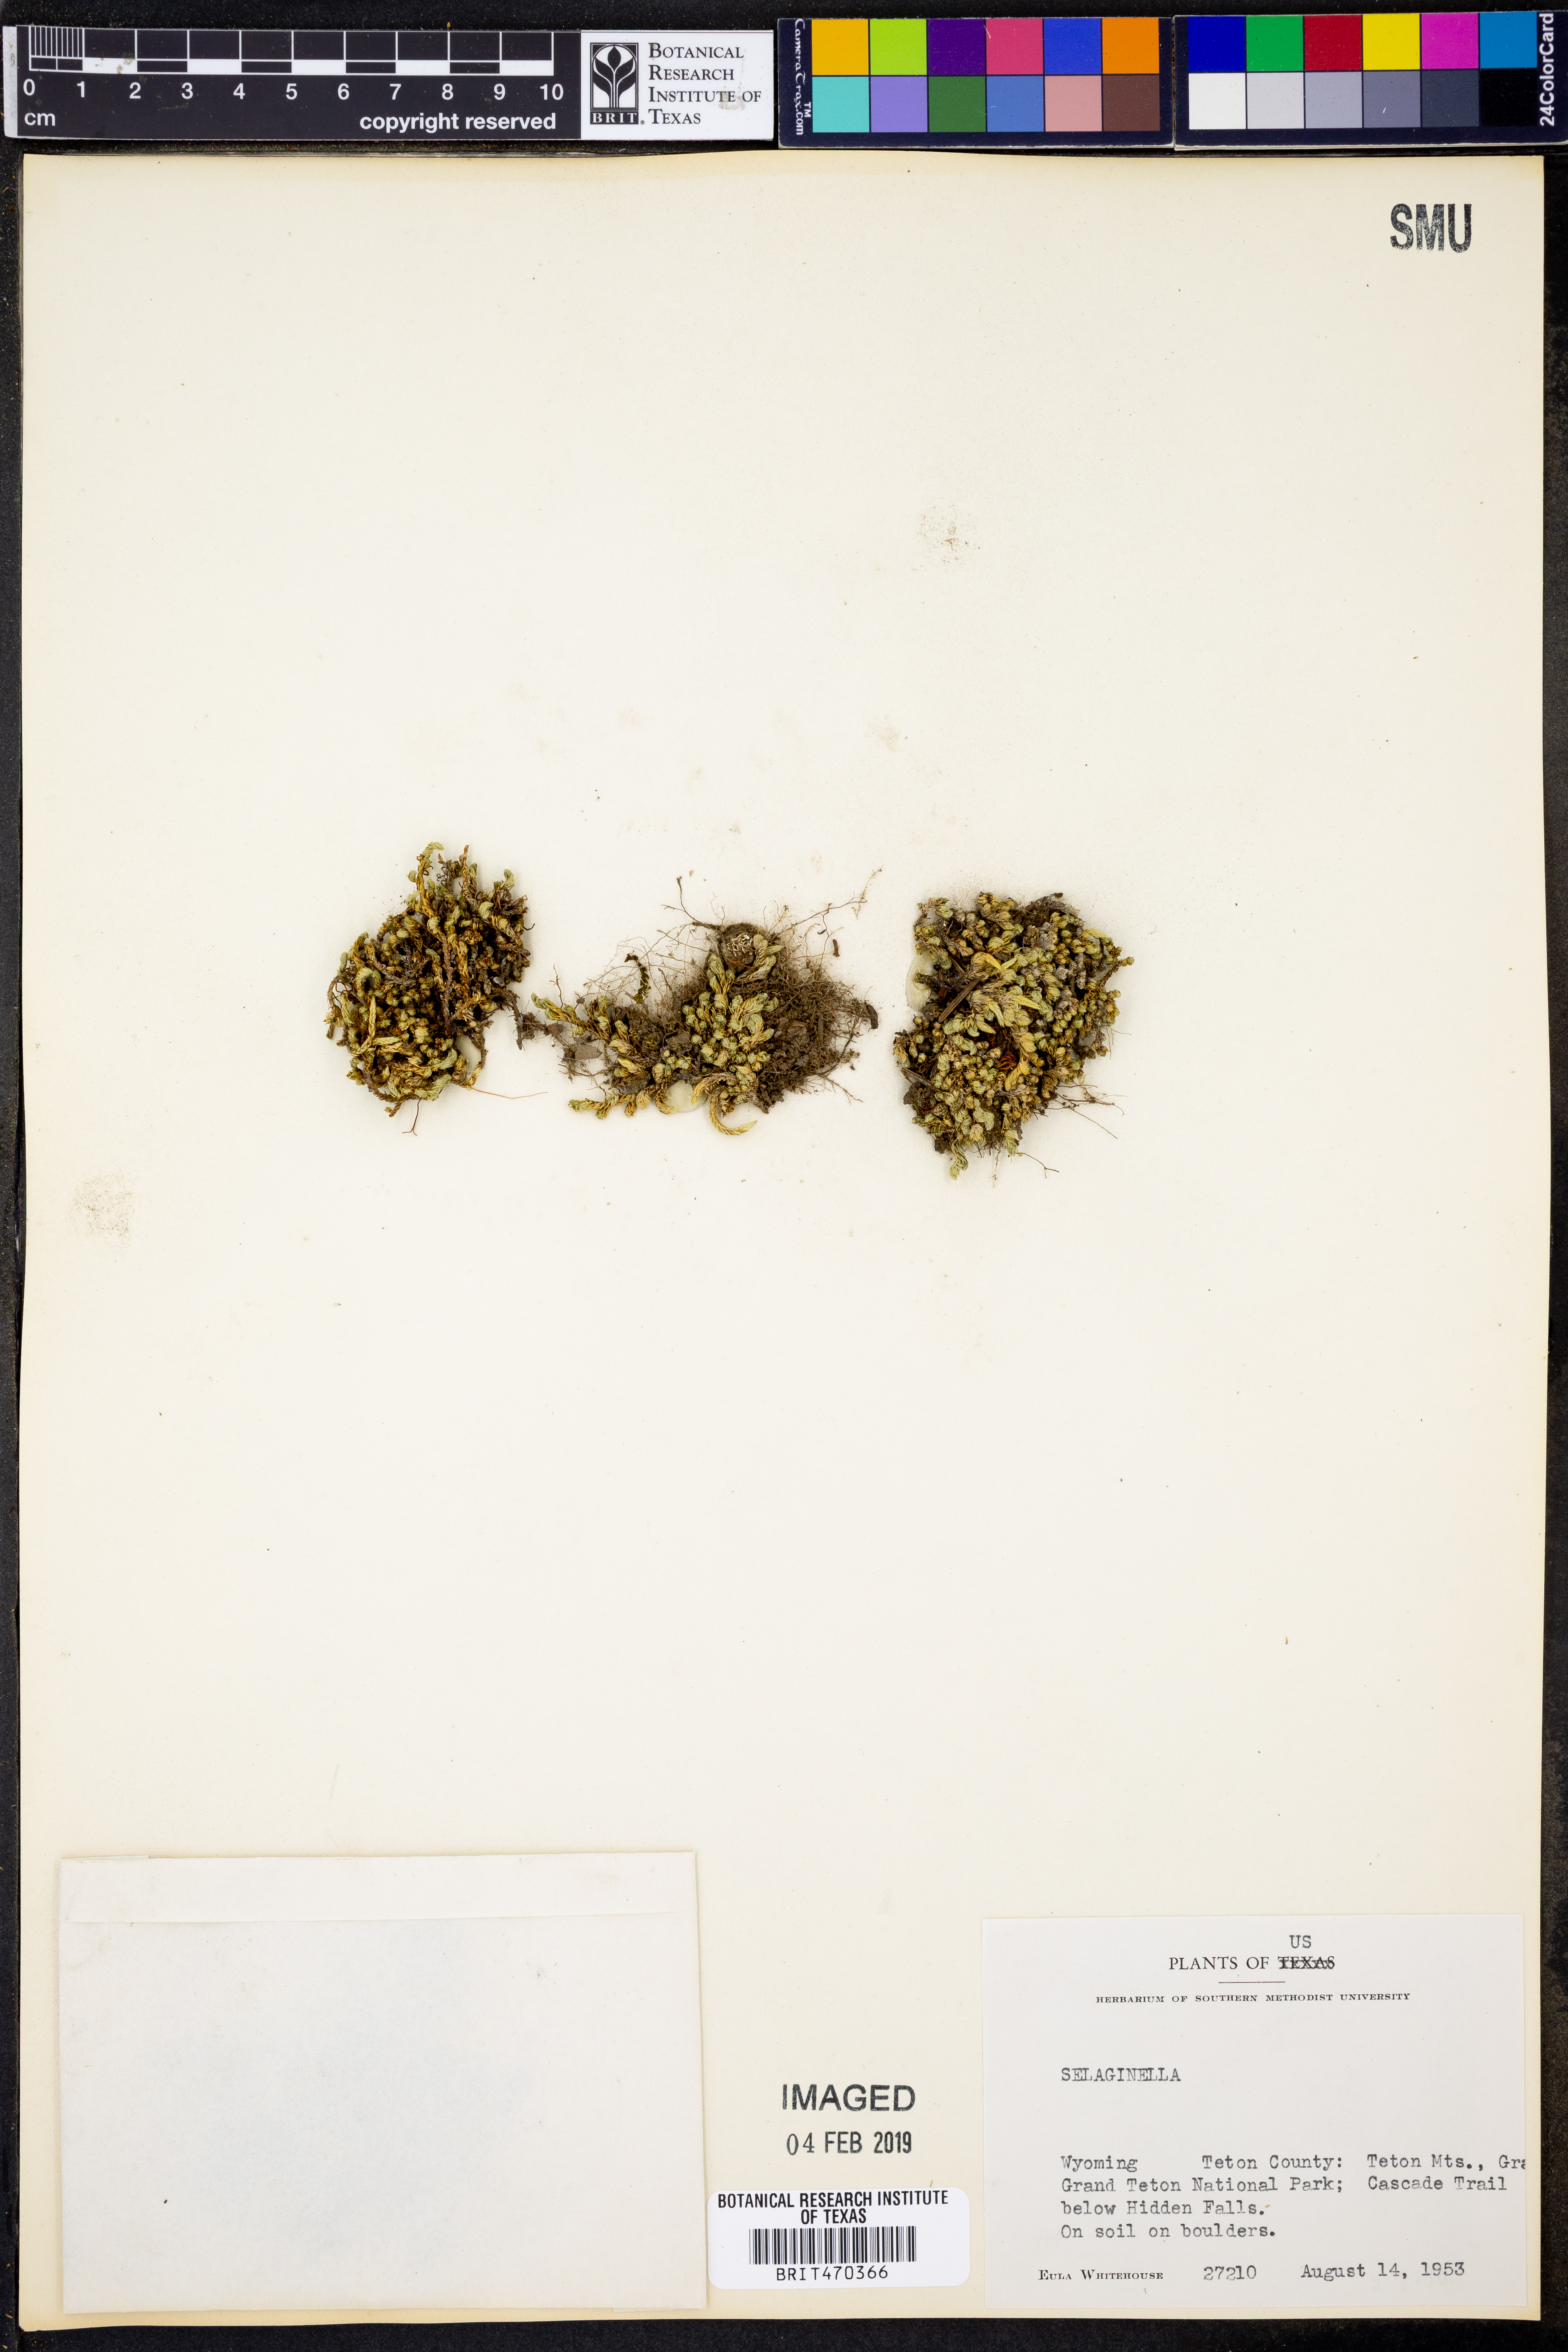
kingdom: Plantae
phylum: Tracheophyta
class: Lycopodiopsida
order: Selaginellales
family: Selaginellaceae
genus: Selaginella
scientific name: Selaginella
